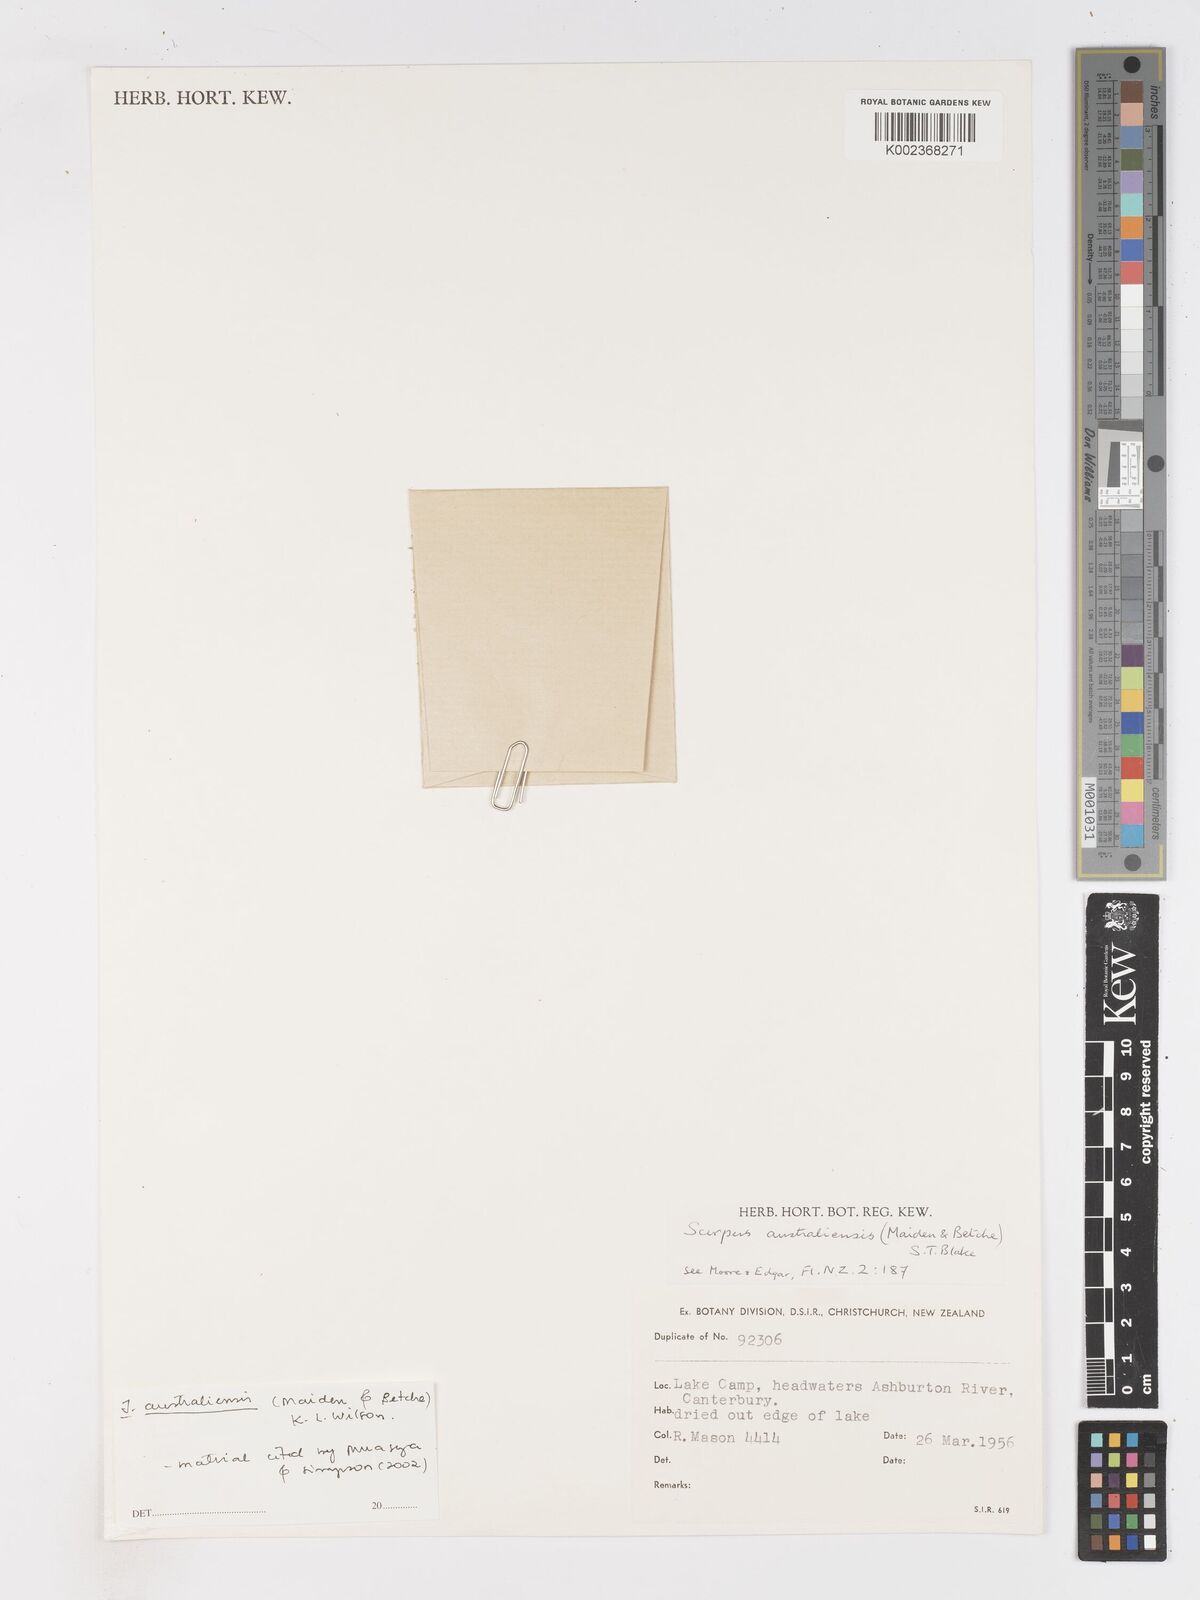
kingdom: Plantae
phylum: Tracheophyta
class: Liliopsida
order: Poales
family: Cyperaceae
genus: Isolepis
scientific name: Isolepis australiensis
